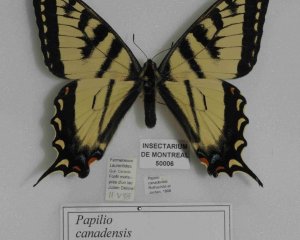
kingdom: Animalia
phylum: Arthropoda
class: Insecta
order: Lepidoptera
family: Papilionidae
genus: Pterourus
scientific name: Pterourus canadensis
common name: Canadian Tiger Swallowtail
